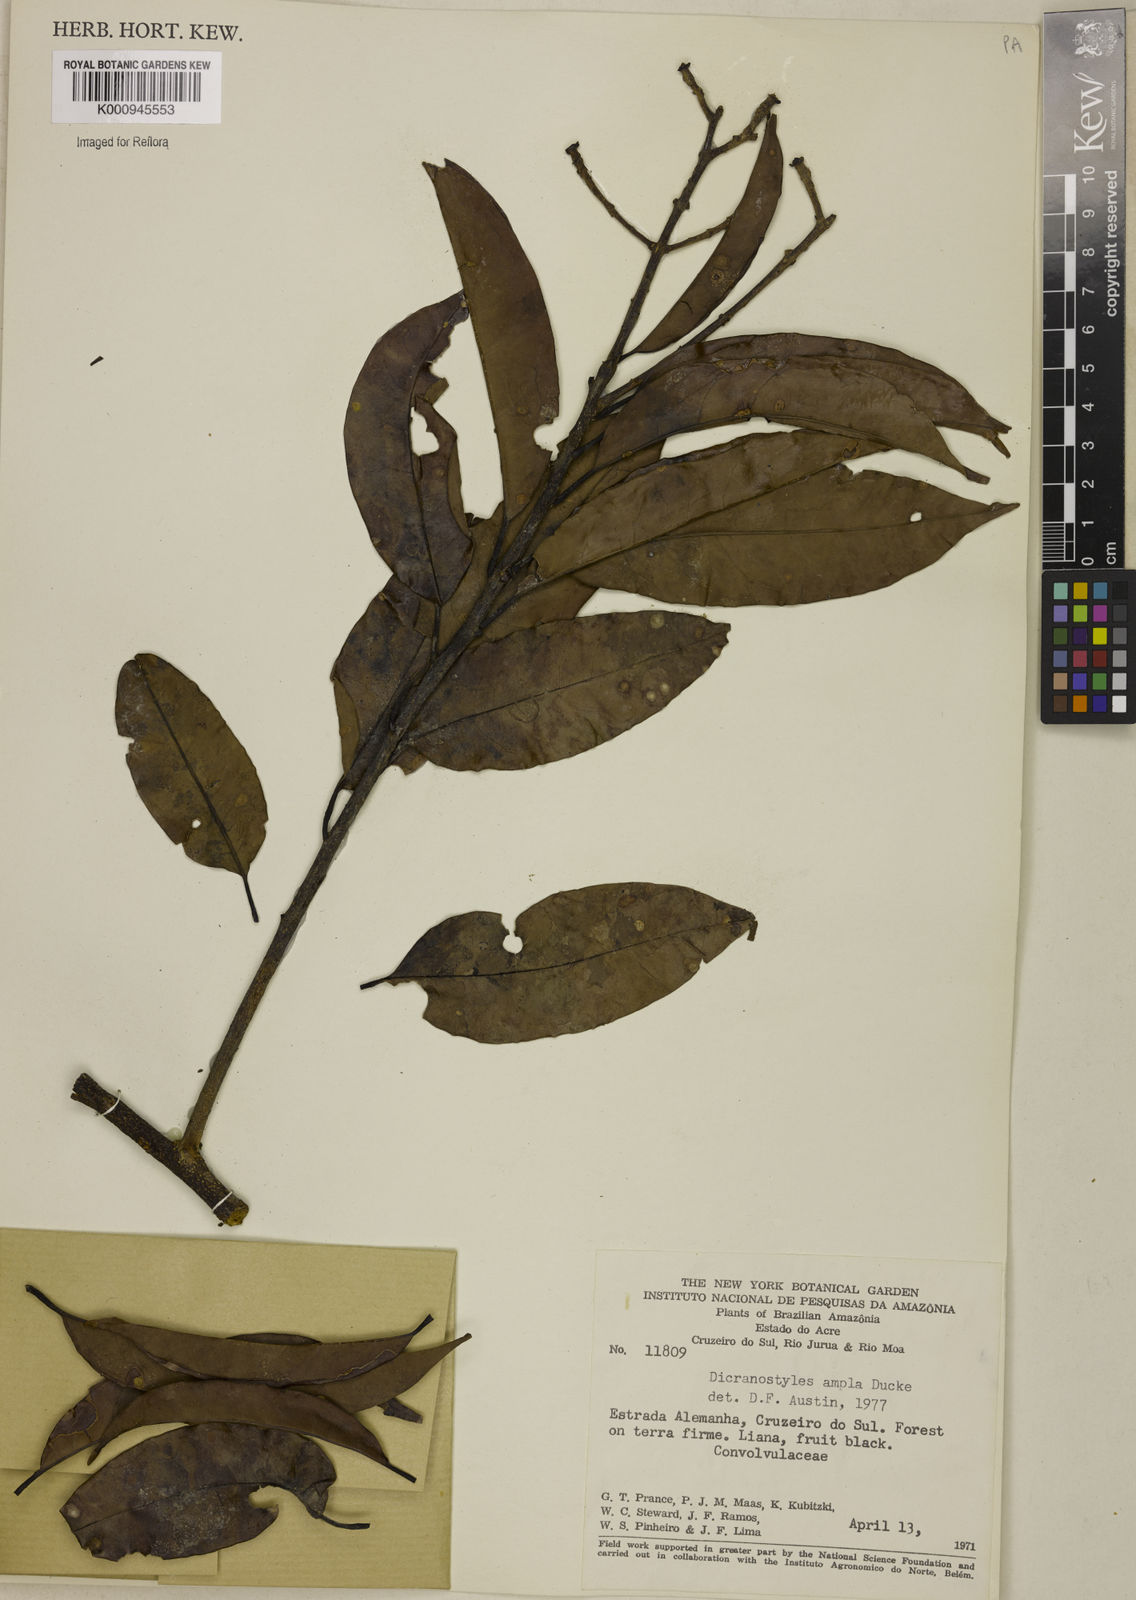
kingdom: Plantae
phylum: Tracheophyta
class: Magnoliopsida
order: Solanales
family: Convolvulaceae
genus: Dicranostyles
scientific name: Dicranostyles ampla
